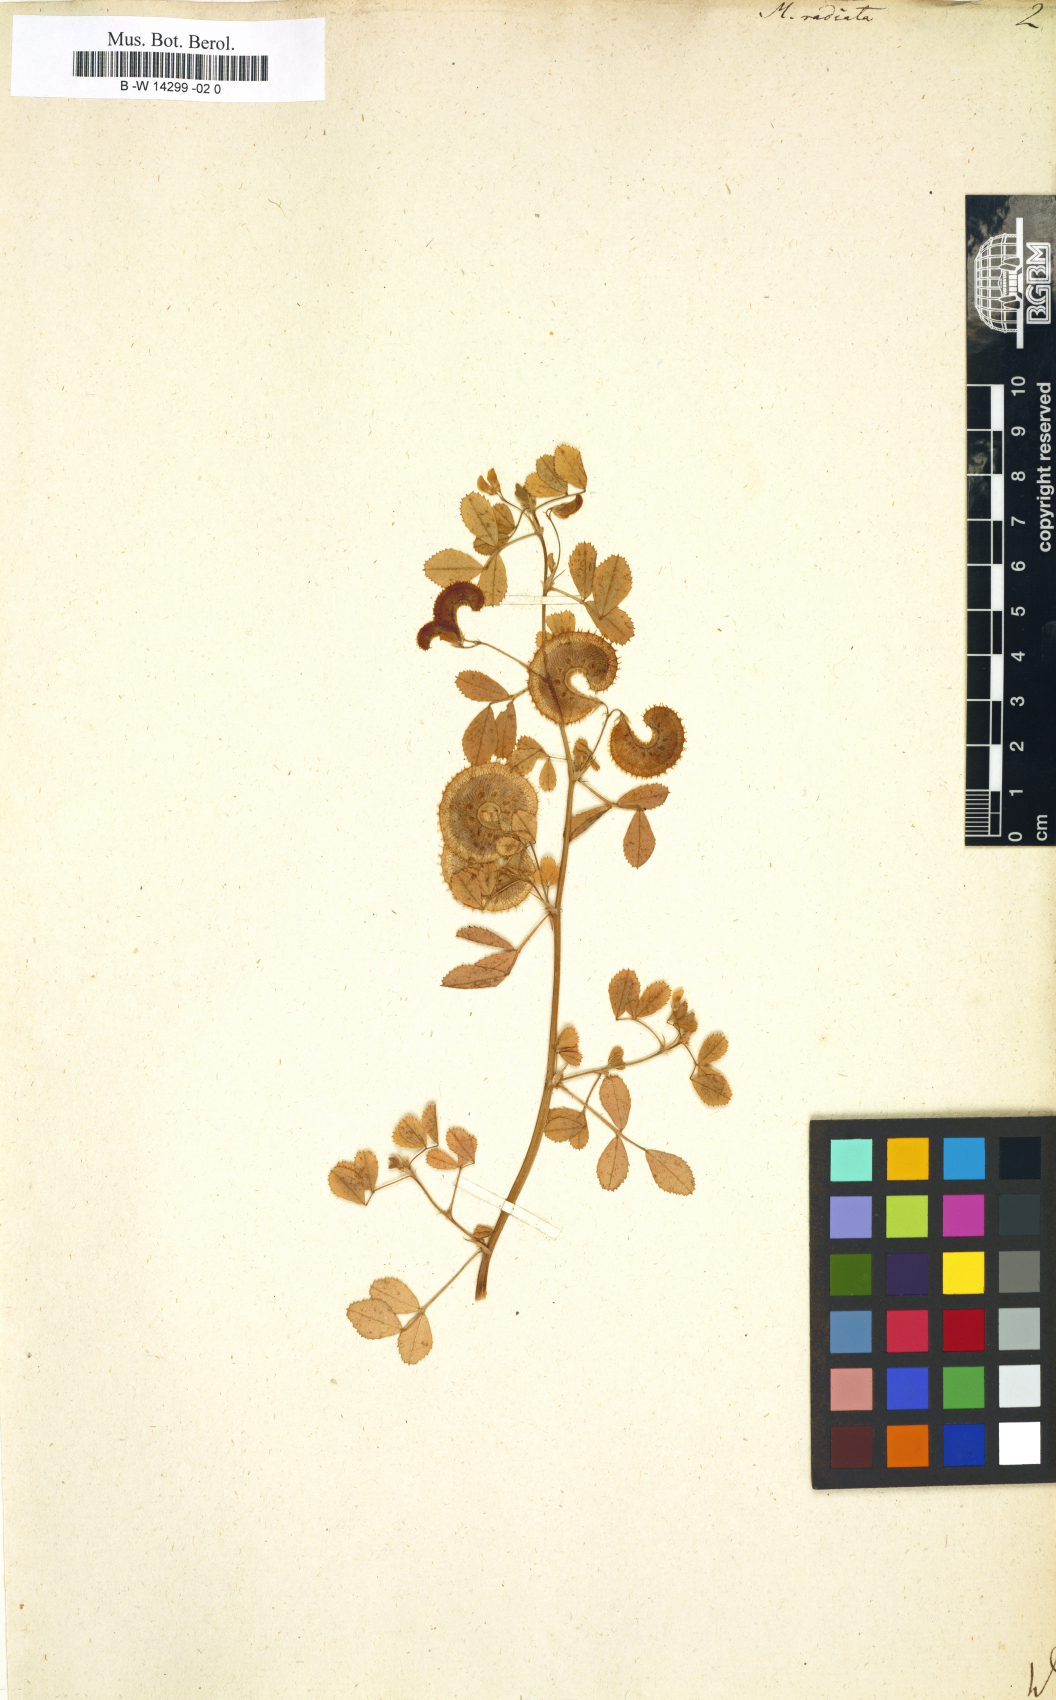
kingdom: Plantae
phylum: Tracheophyta
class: Magnoliopsida
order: Fabales
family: Fabaceae
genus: Medicago
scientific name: Medicago radiata
